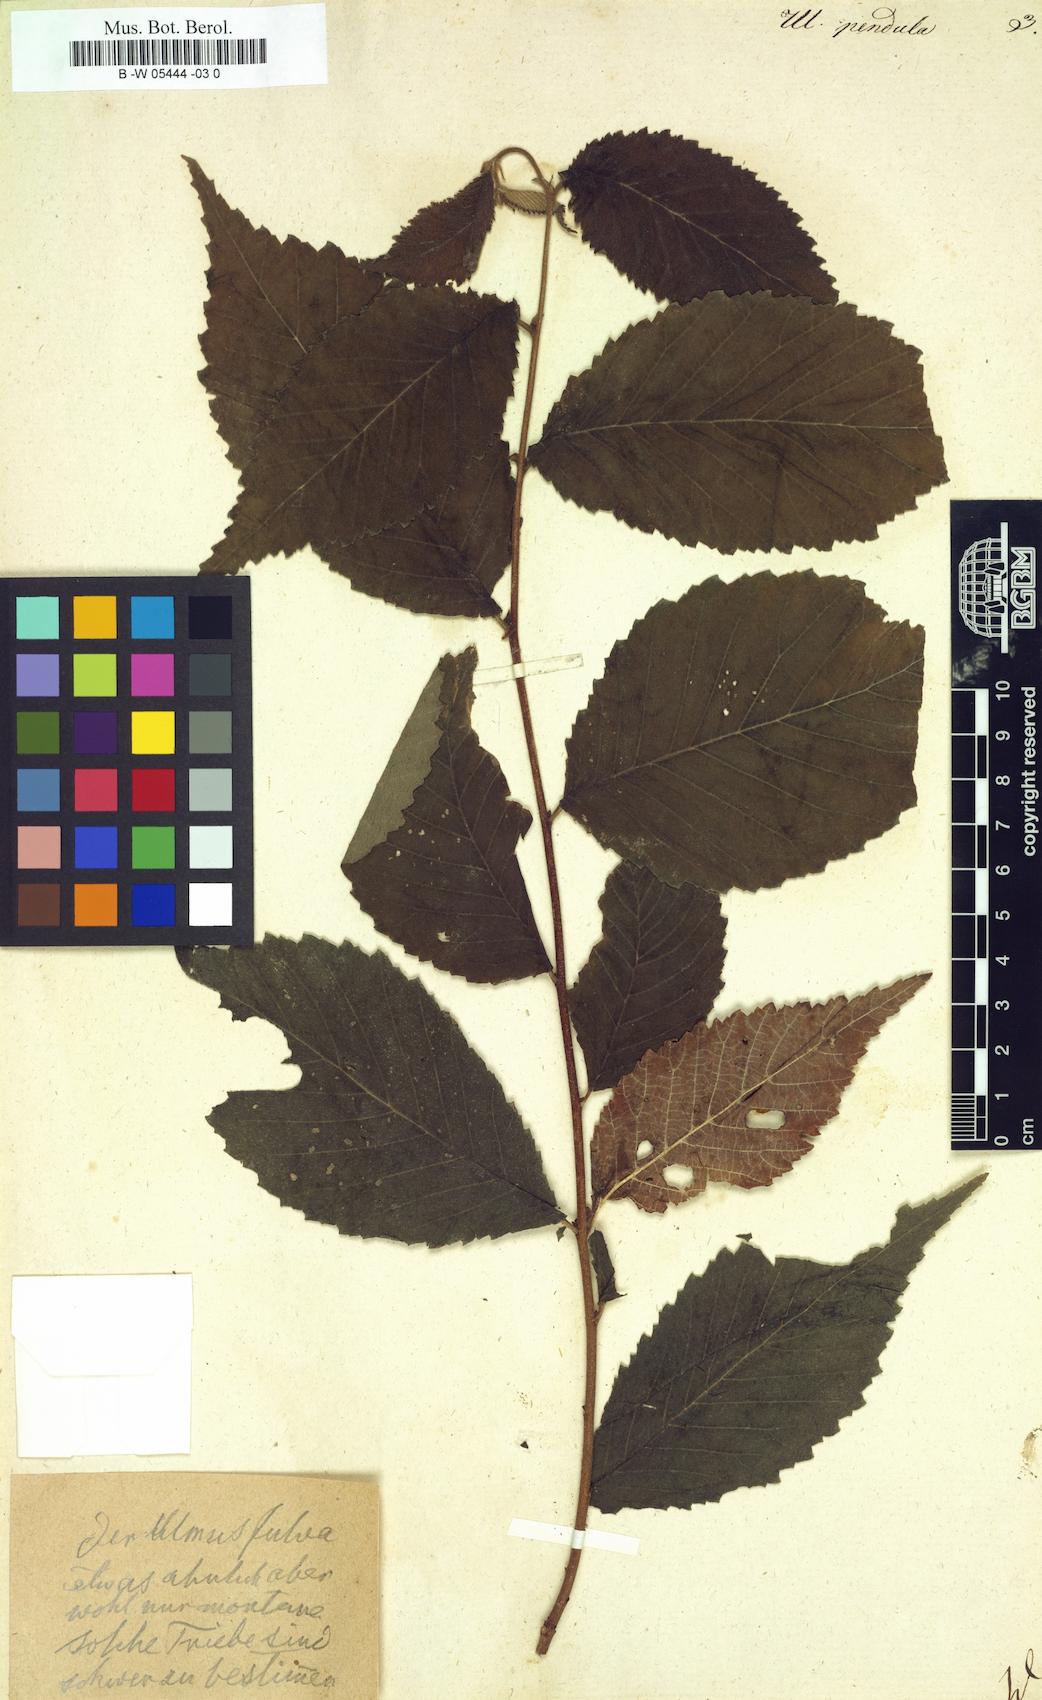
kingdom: Plantae
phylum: Tracheophyta
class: Magnoliopsida
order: Rosales
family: Ulmaceae
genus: Ulmus
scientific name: Ulmus rubra
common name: Slippery elm
